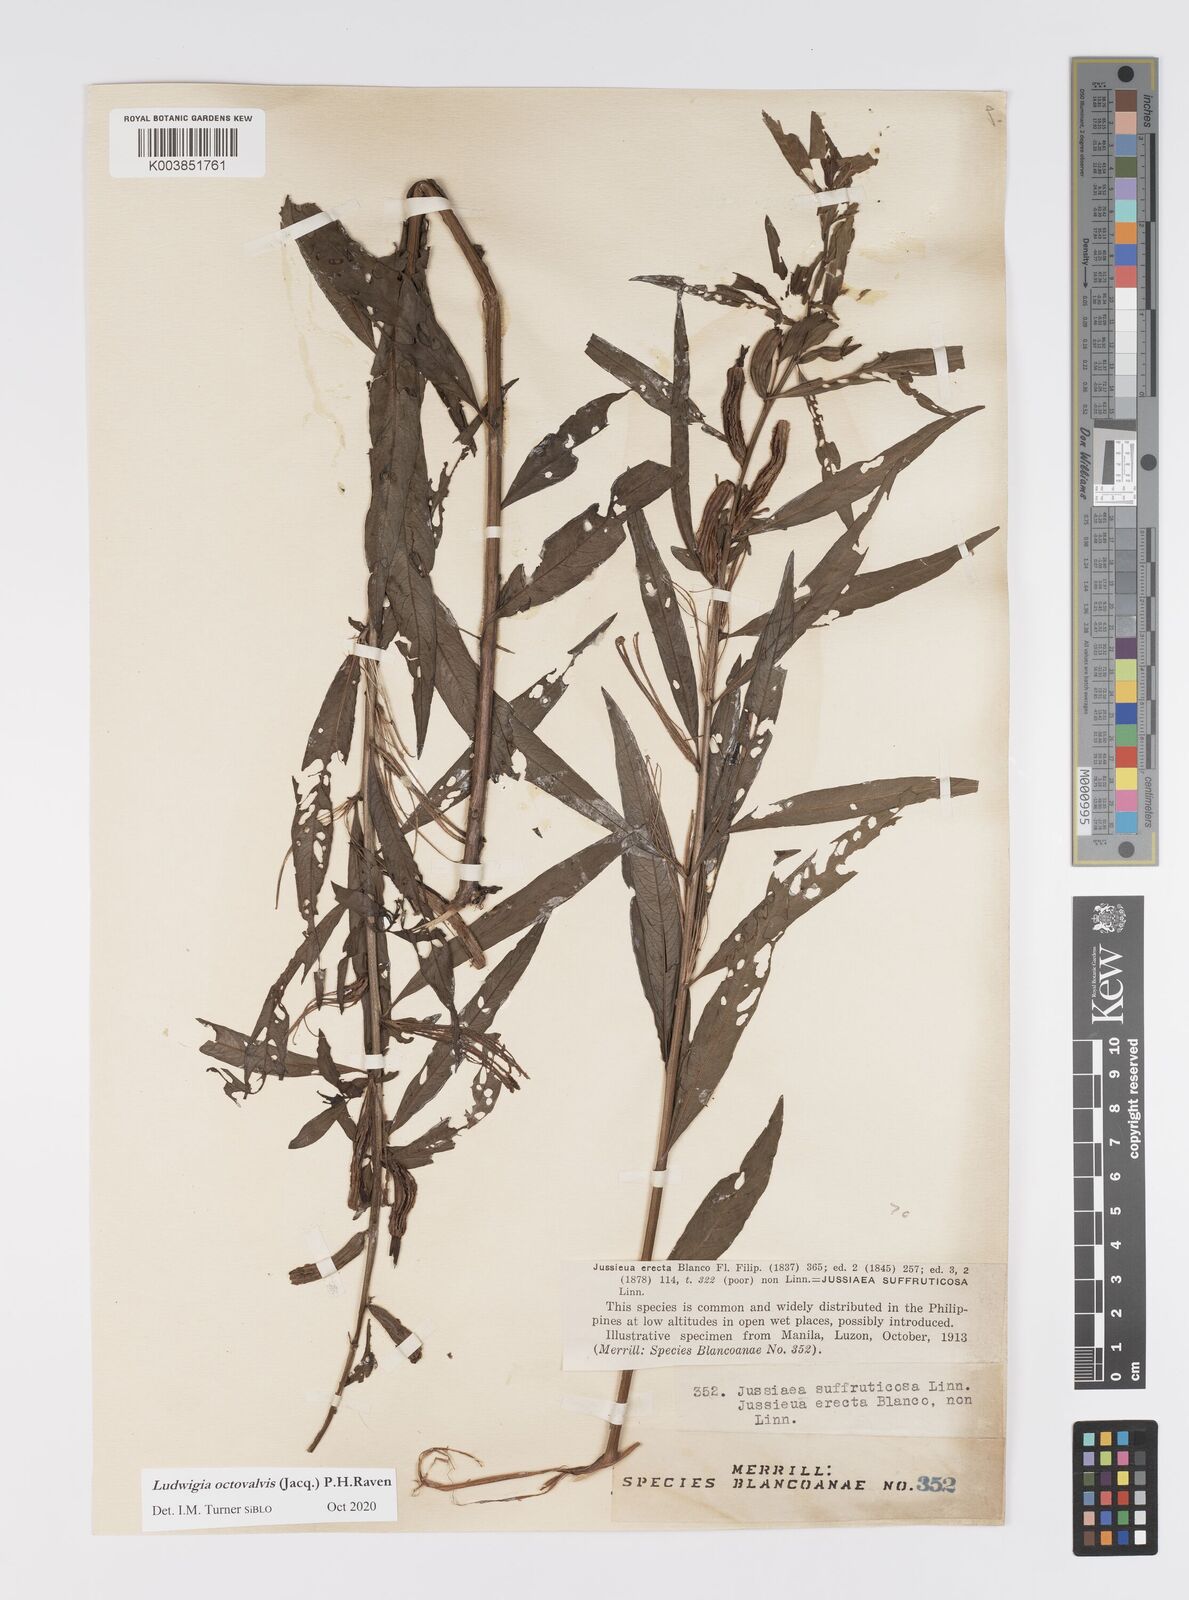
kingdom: Plantae
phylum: Tracheophyta
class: Magnoliopsida
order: Myrtales
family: Onagraceae
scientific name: Onagraceae
